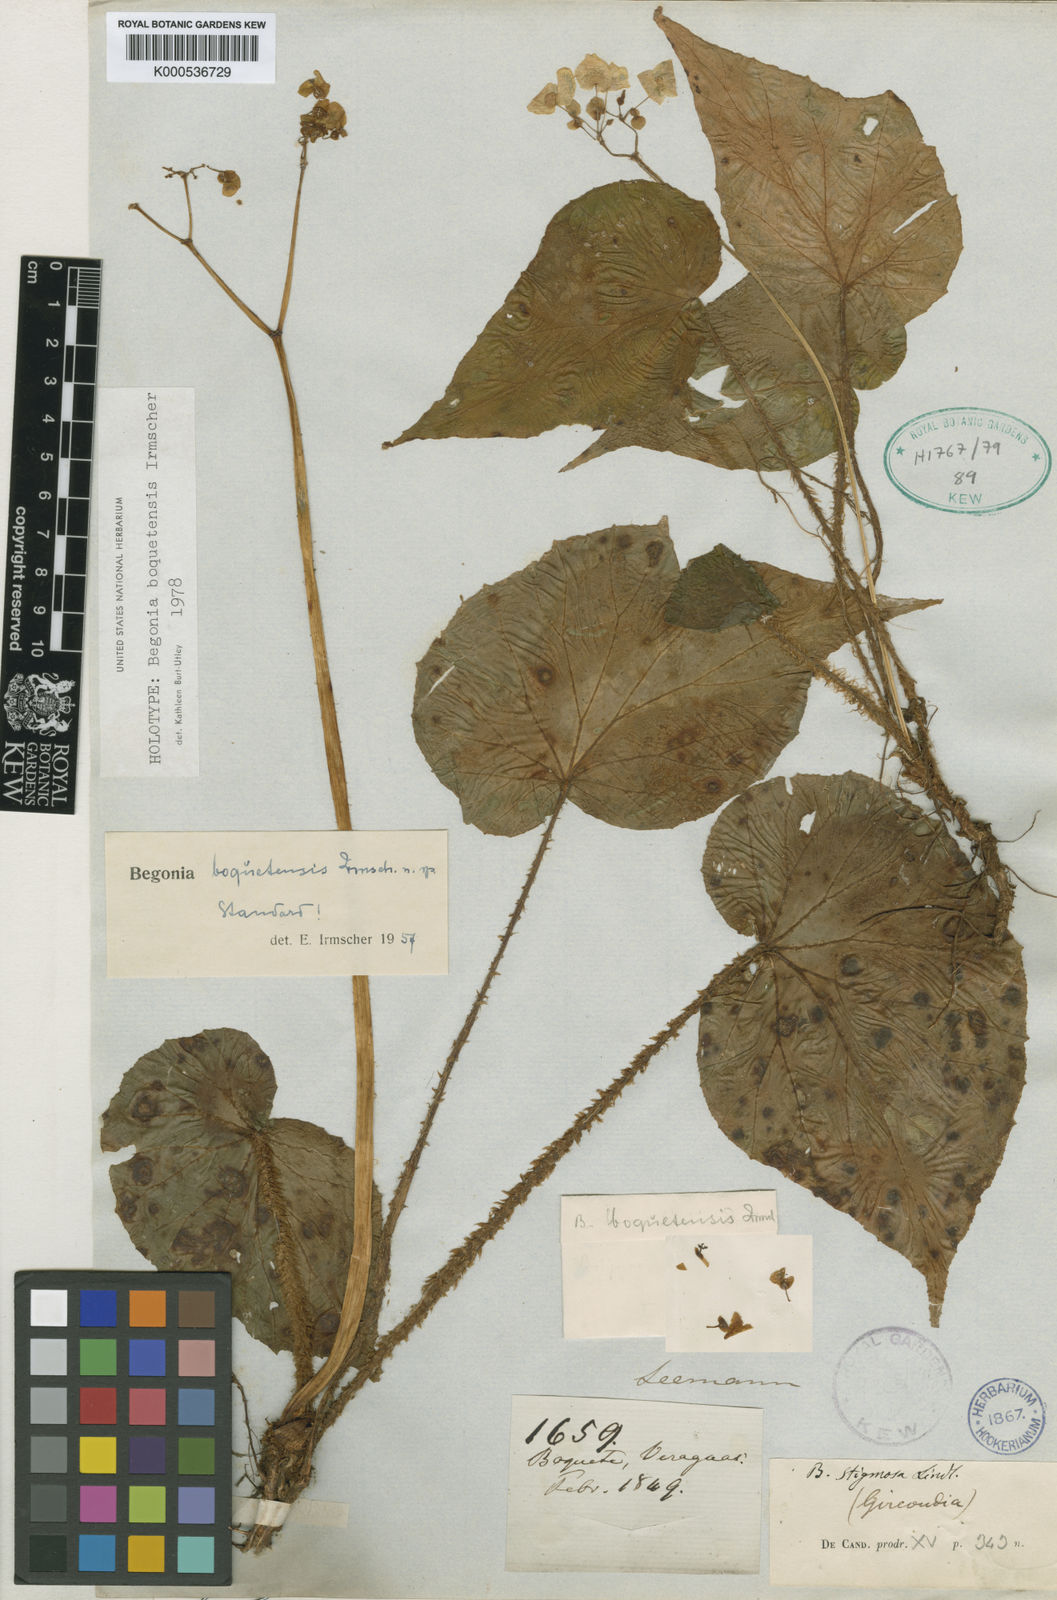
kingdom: Plantae
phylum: Tracheophyta
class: Magnoliopsida
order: Cucurbitales
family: Begoniaceae
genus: Begonia
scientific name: Begonia urophylla
